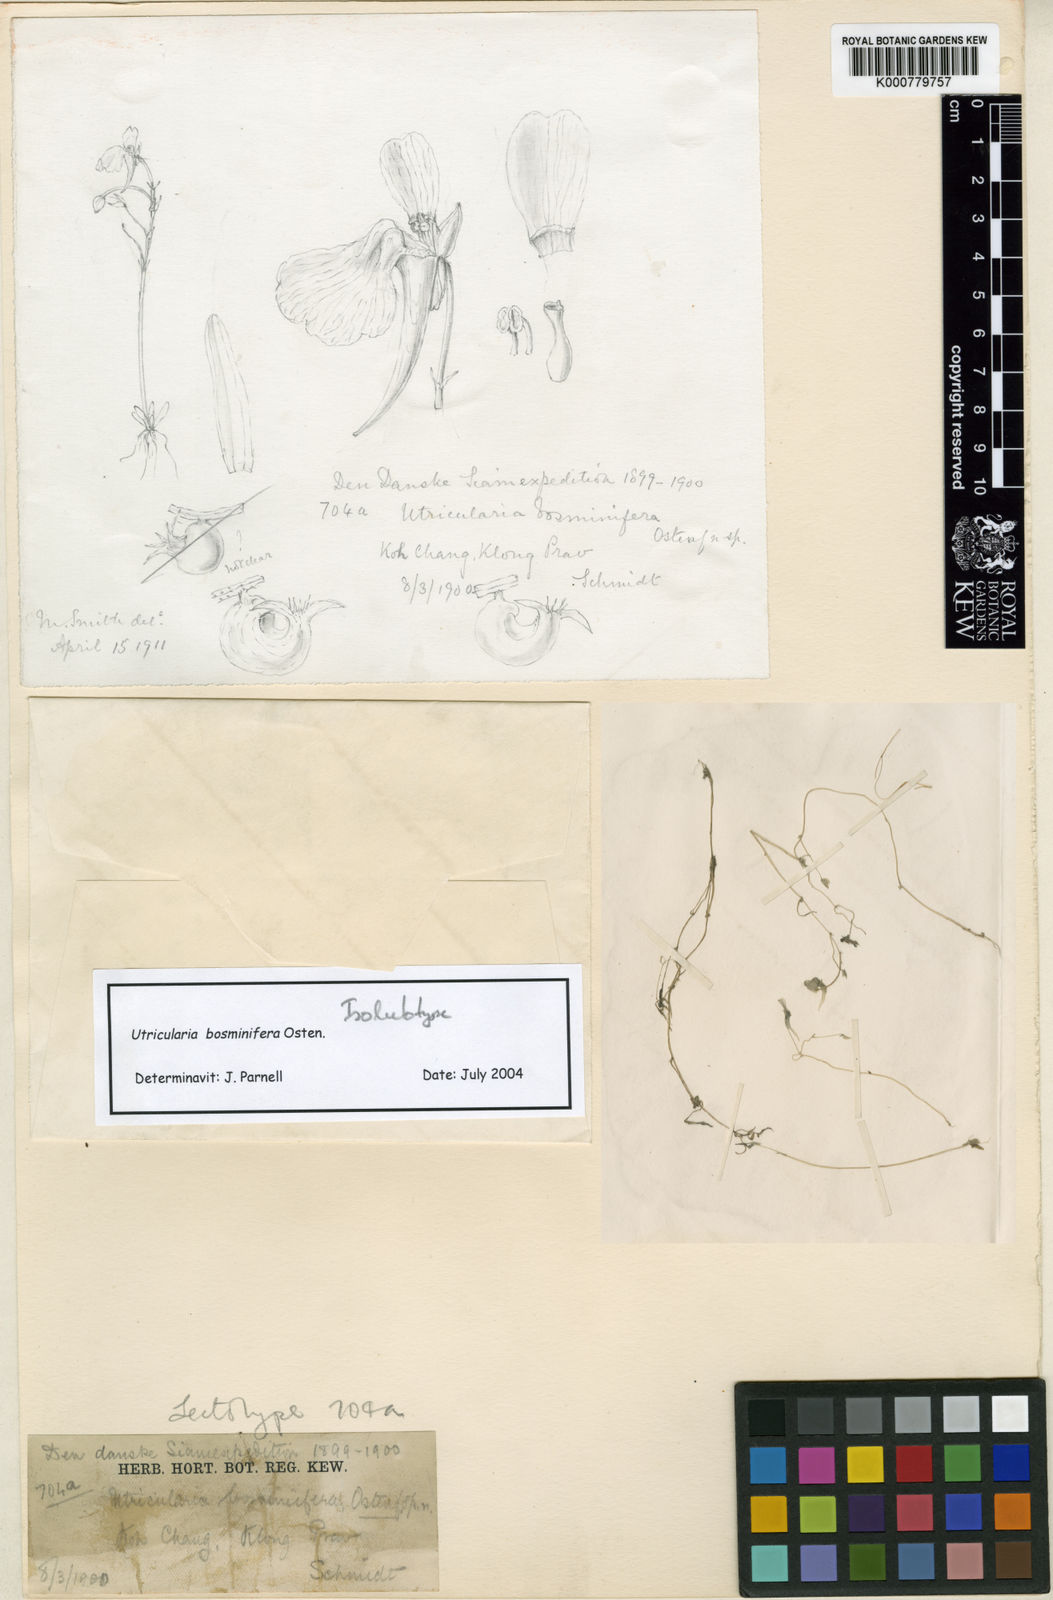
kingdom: Plantae
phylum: Tracheophyta
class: Magnoliopsida
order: Lamiales
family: Lentibulariaceae
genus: Utricularia
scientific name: Utricularia bosminifera
